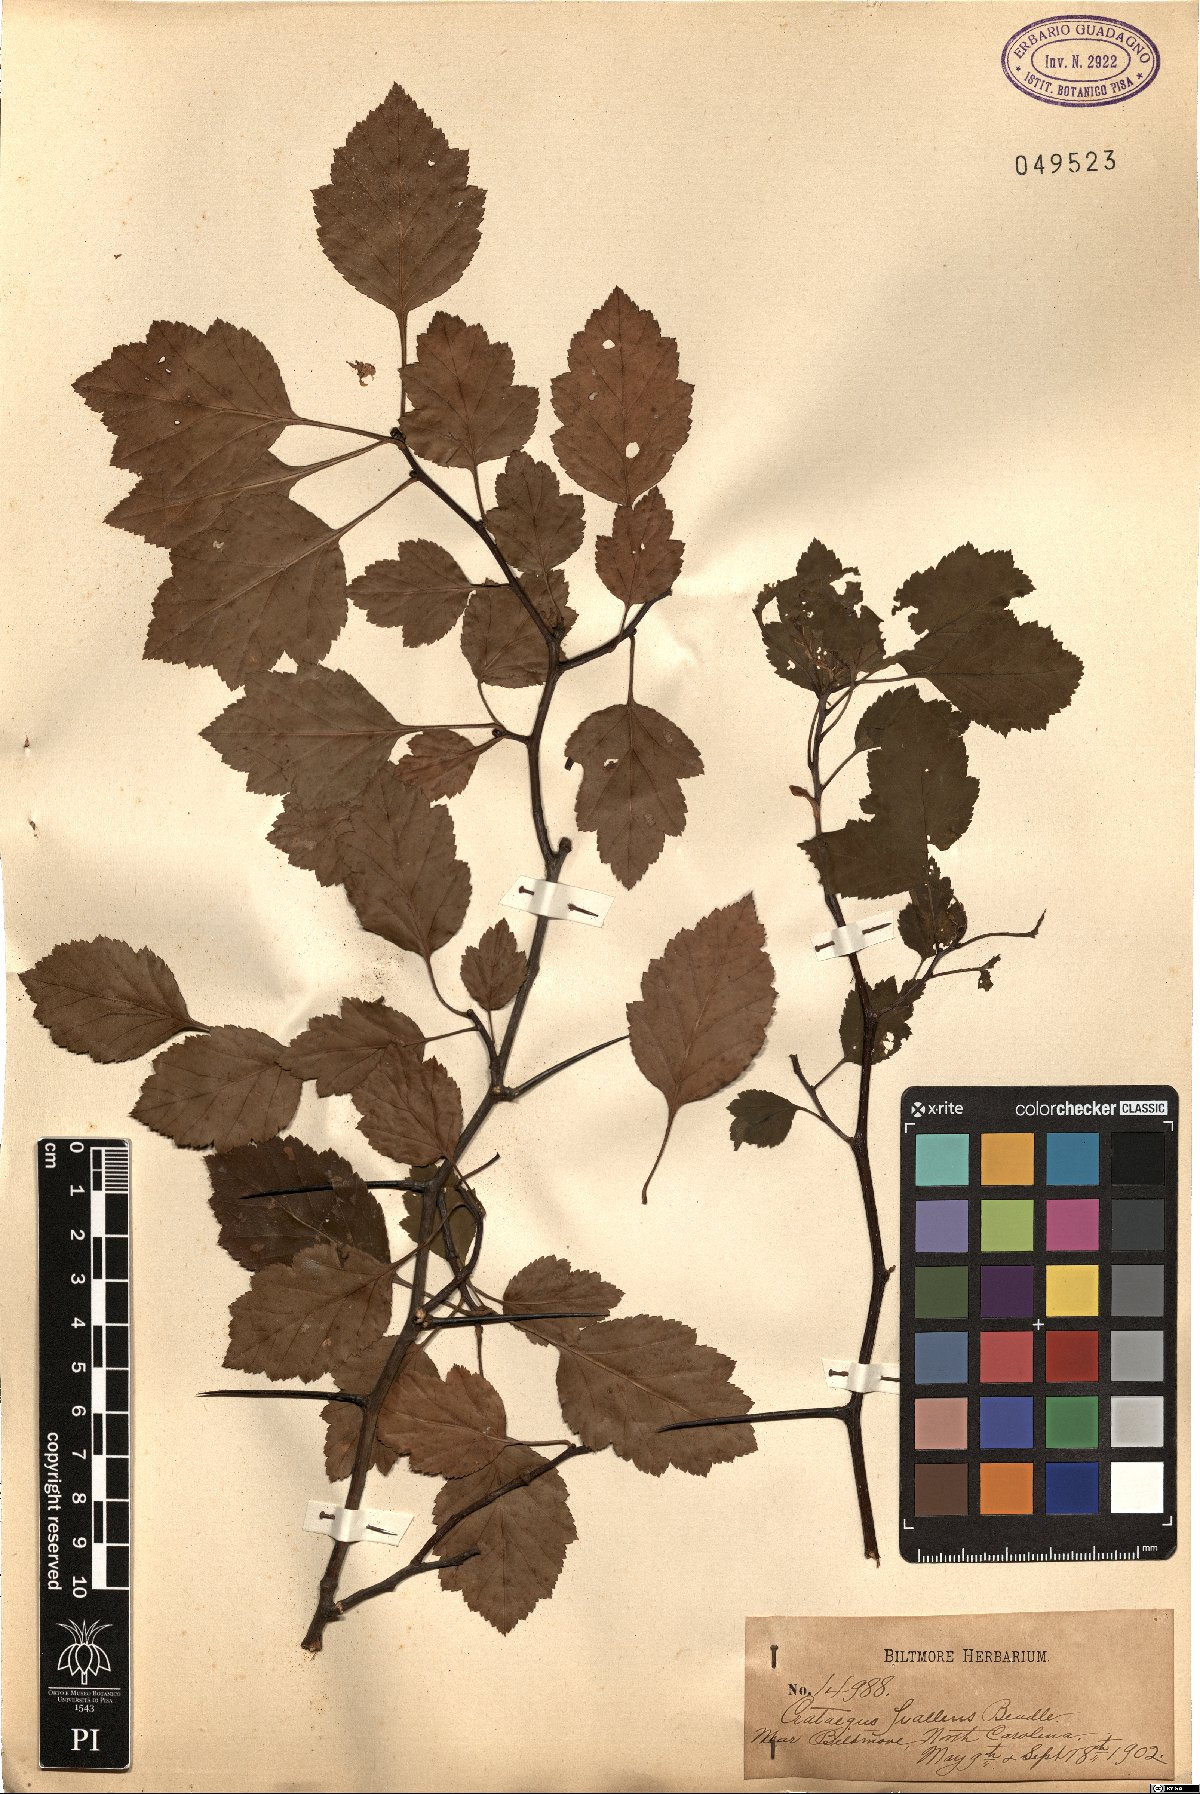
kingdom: Plantae
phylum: Tracheophyta
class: Magnoliopsida
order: Rosales
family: Rosaceae
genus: Crataegus
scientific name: Crataegus pulcherrima
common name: Beautiful hawthorn
